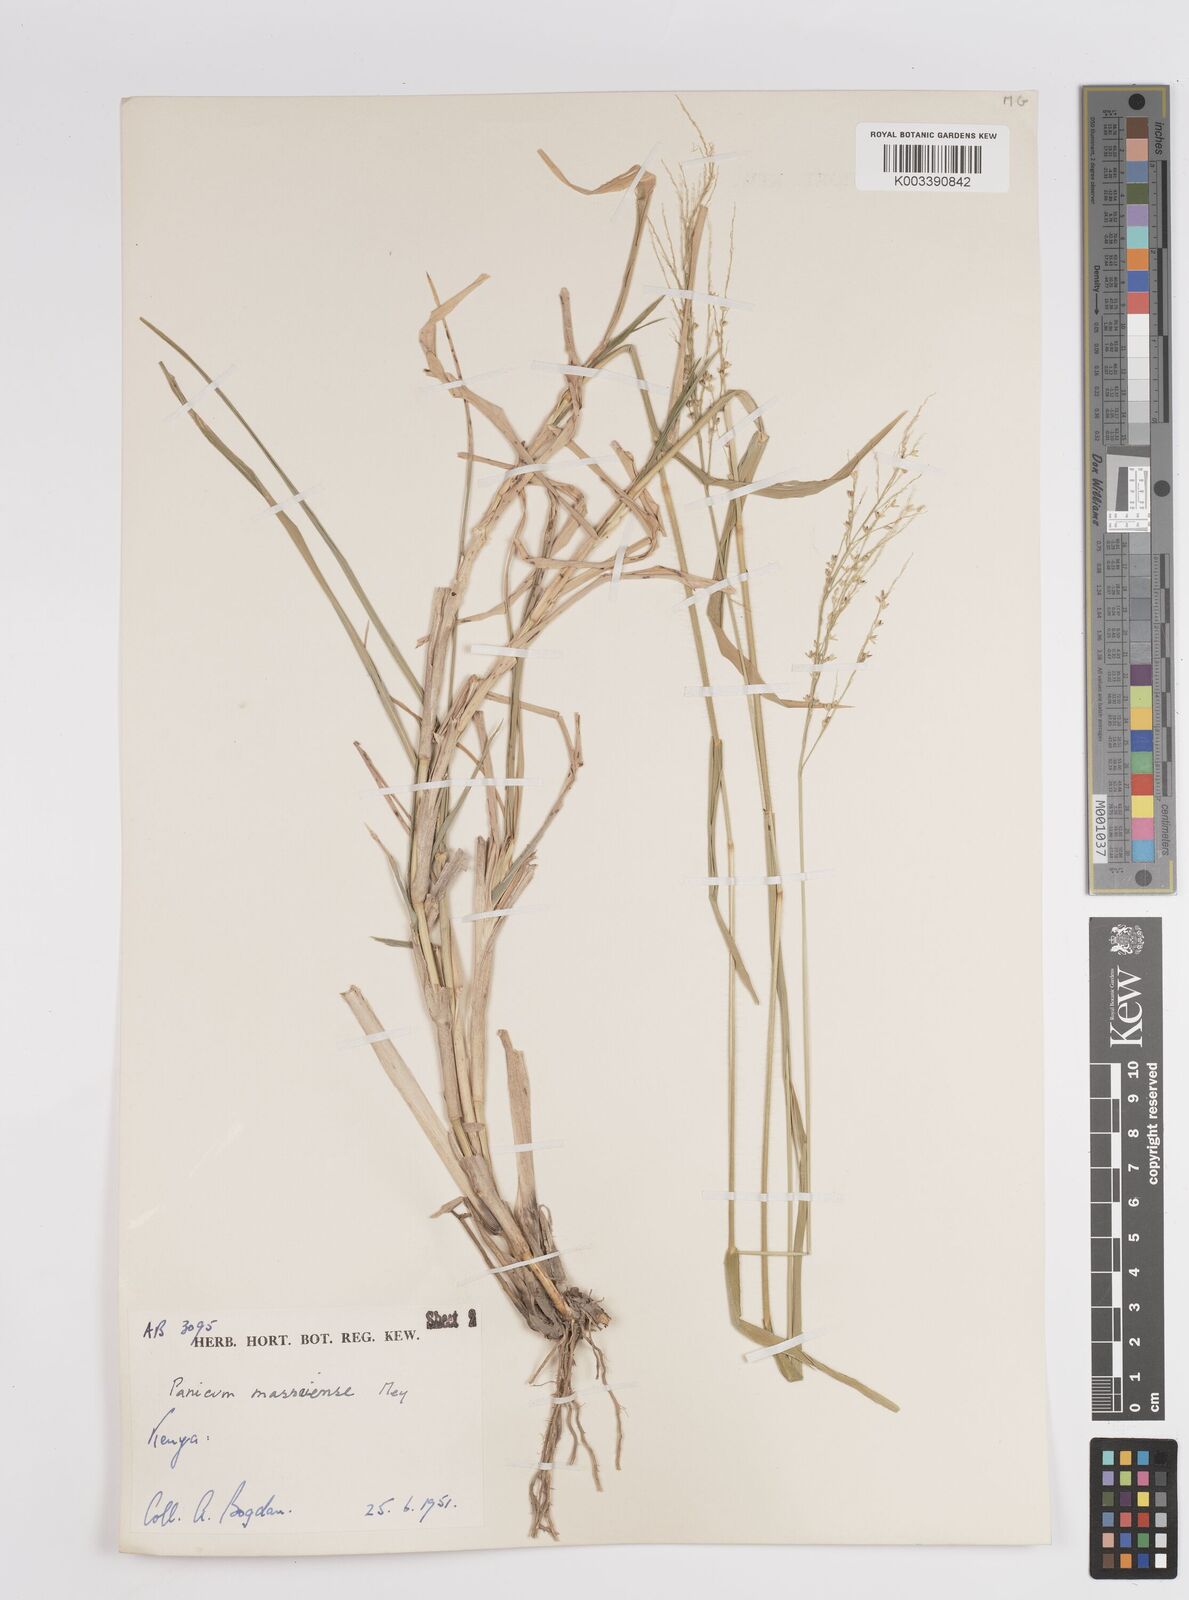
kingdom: Plantae
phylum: Tracheophyta
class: Liliopsida
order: Poales
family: Poaceae
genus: Panicum
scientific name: Panicum coloratum
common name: Kleingrass
